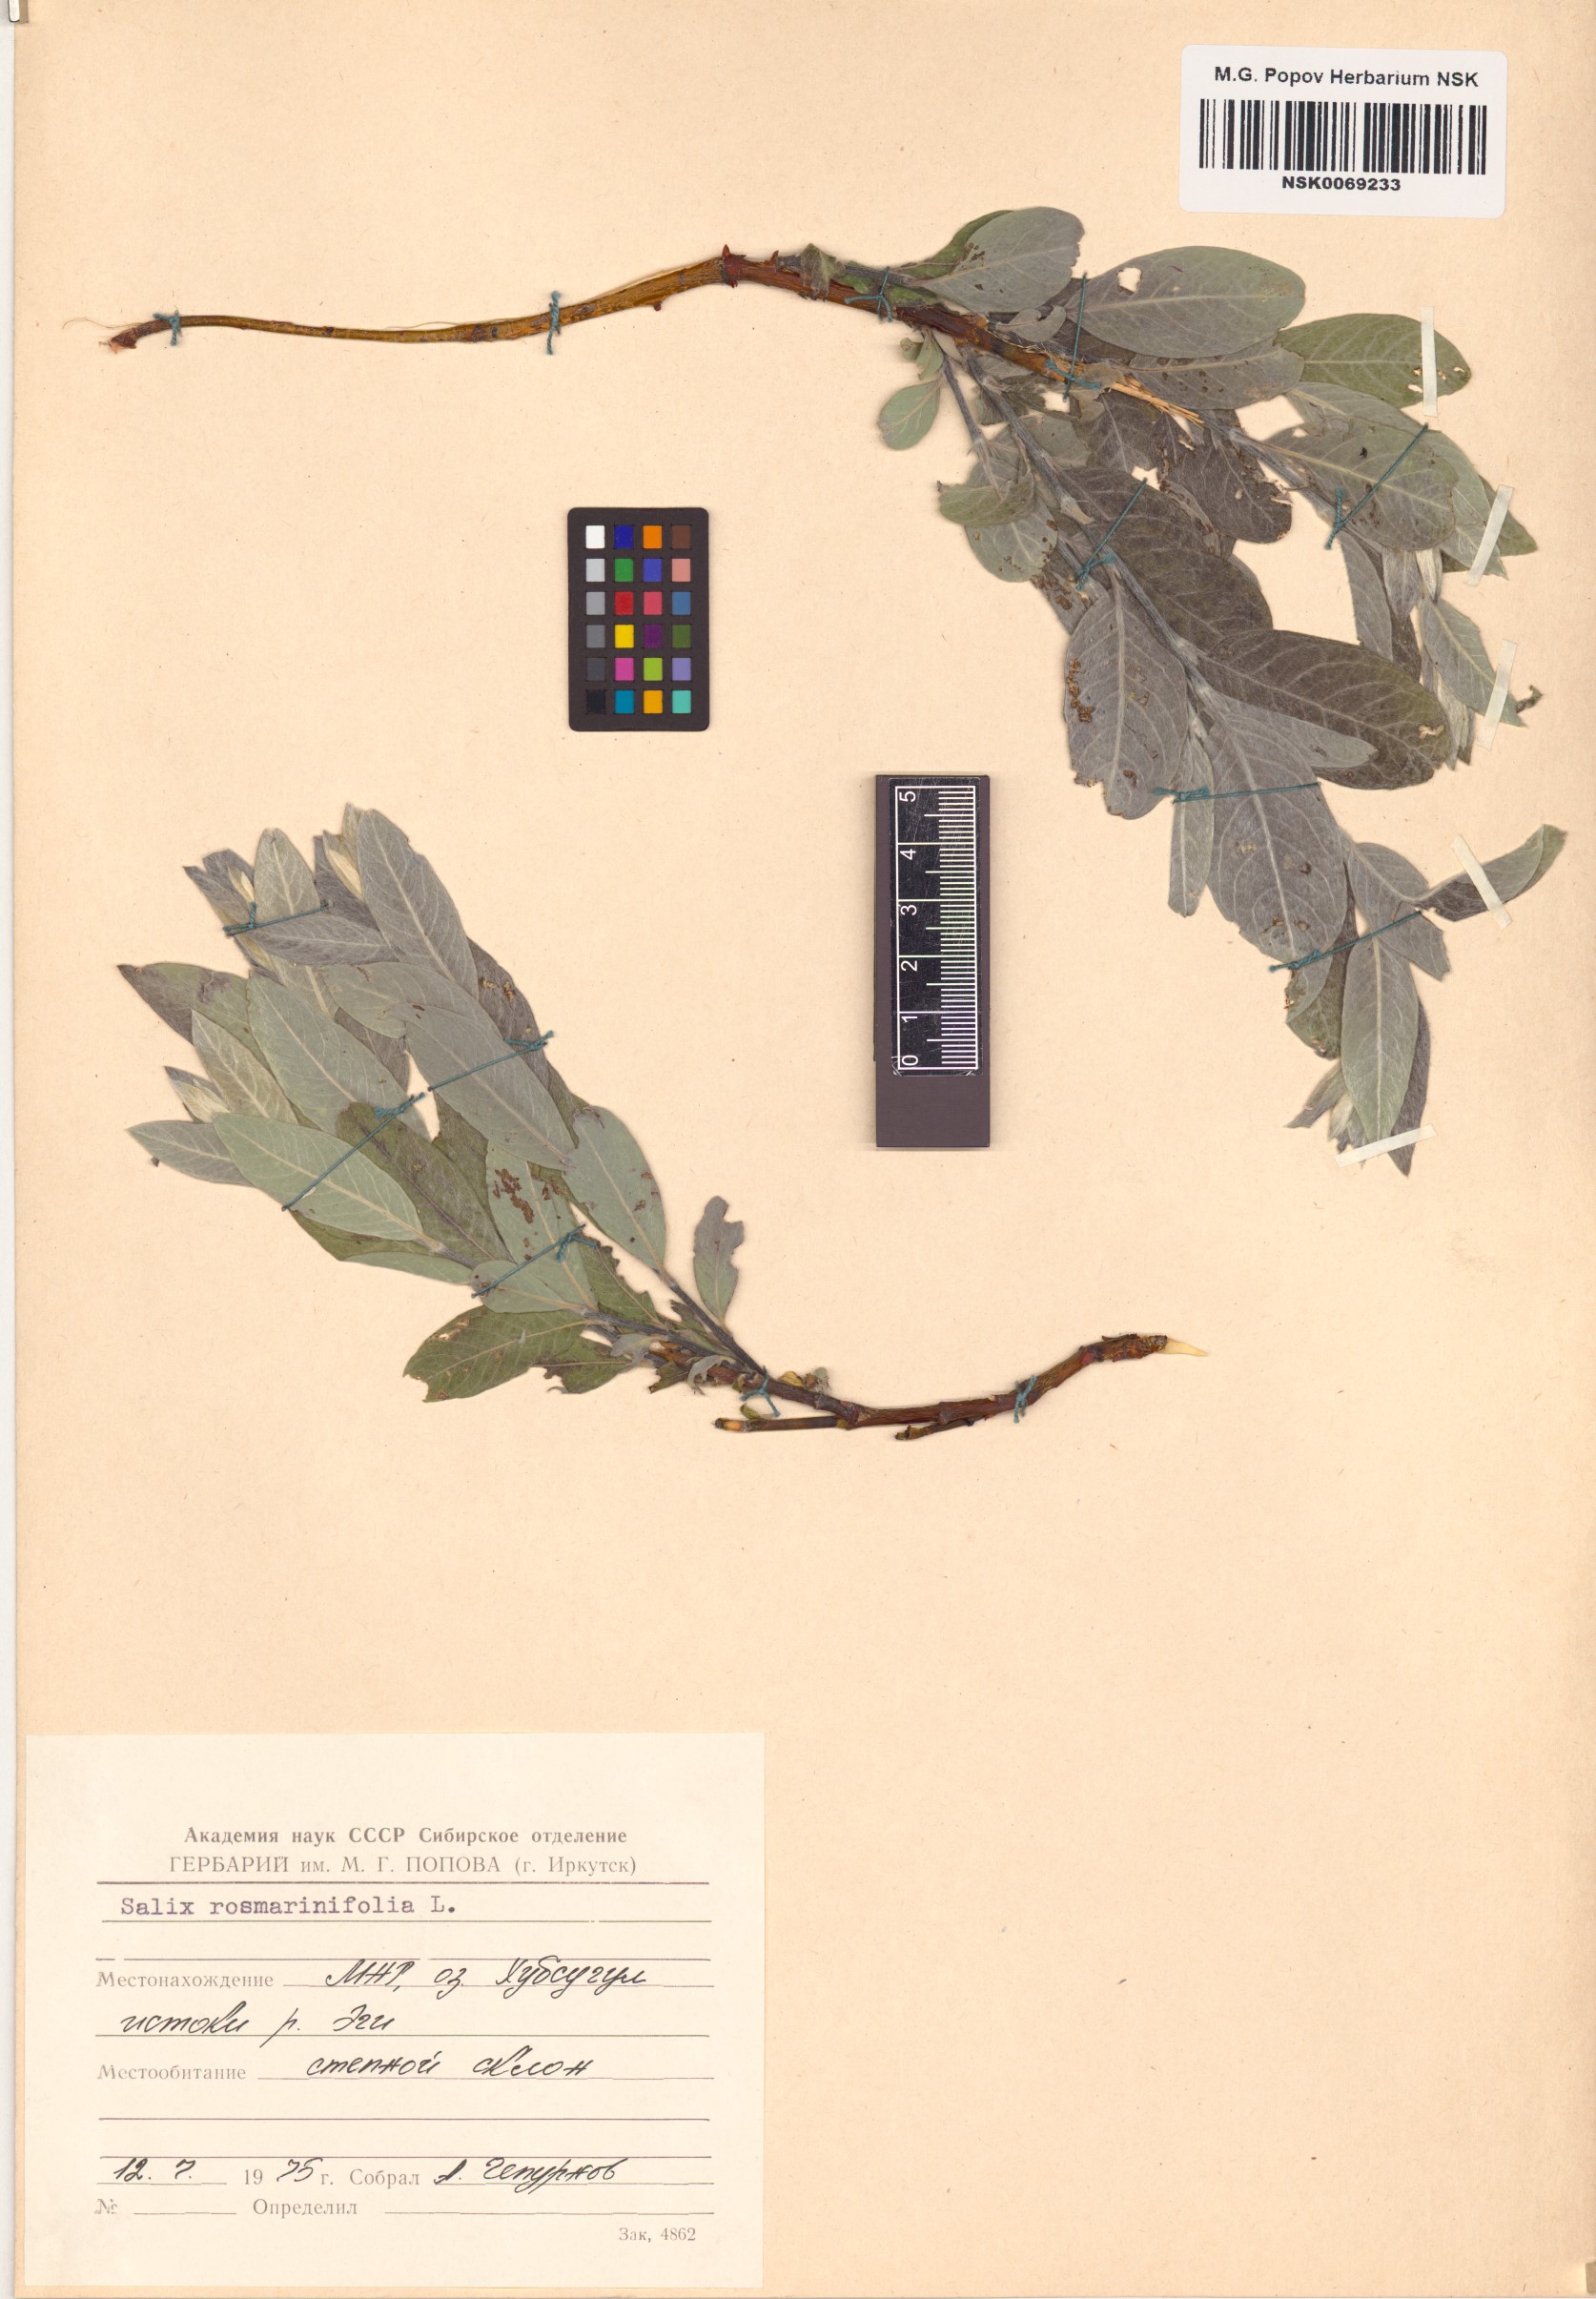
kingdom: Plantae
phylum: Tracheophyta
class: Magnoliopsida
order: Malpighiales
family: Salicaceae
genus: Salix
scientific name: Salix rosmarinifolia
